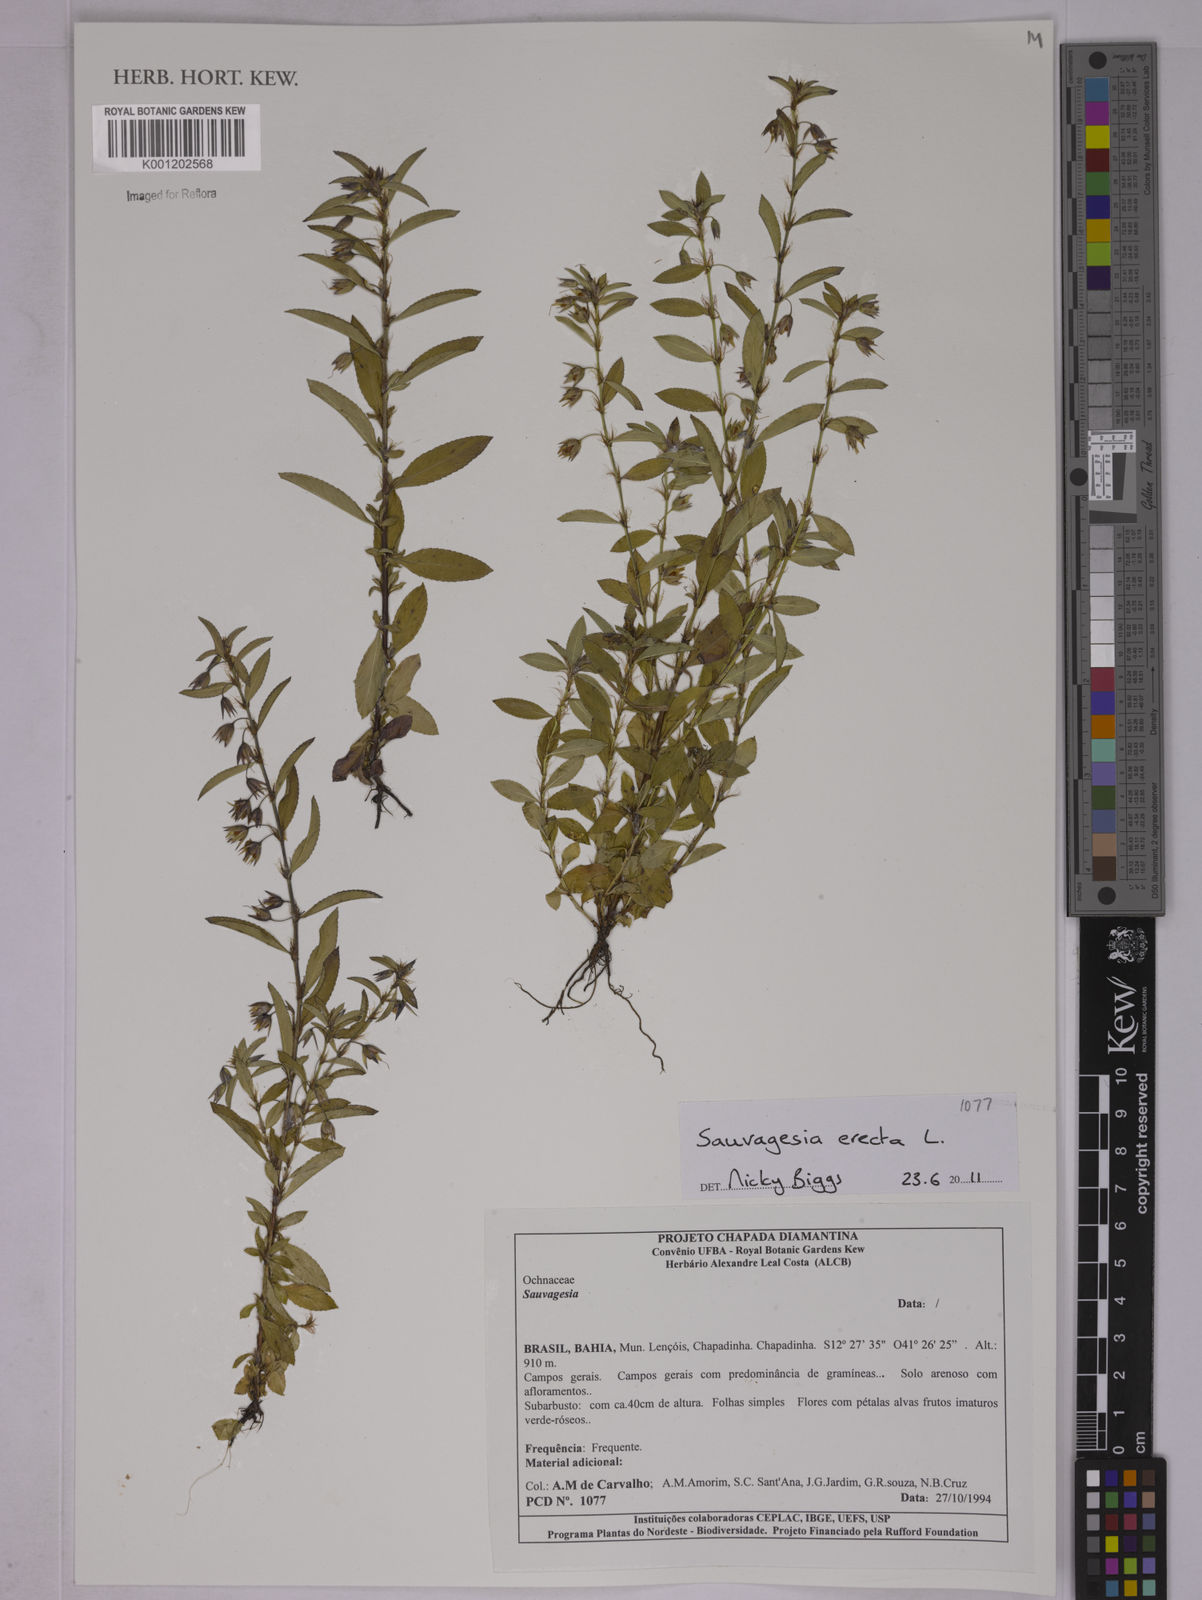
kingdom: Plantae
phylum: Tracheophyta
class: Magnoliopsida
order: Malpighiales
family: Ochnaceae
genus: Sauvagesia
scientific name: Sauvagesia erecta
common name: Creole tea
